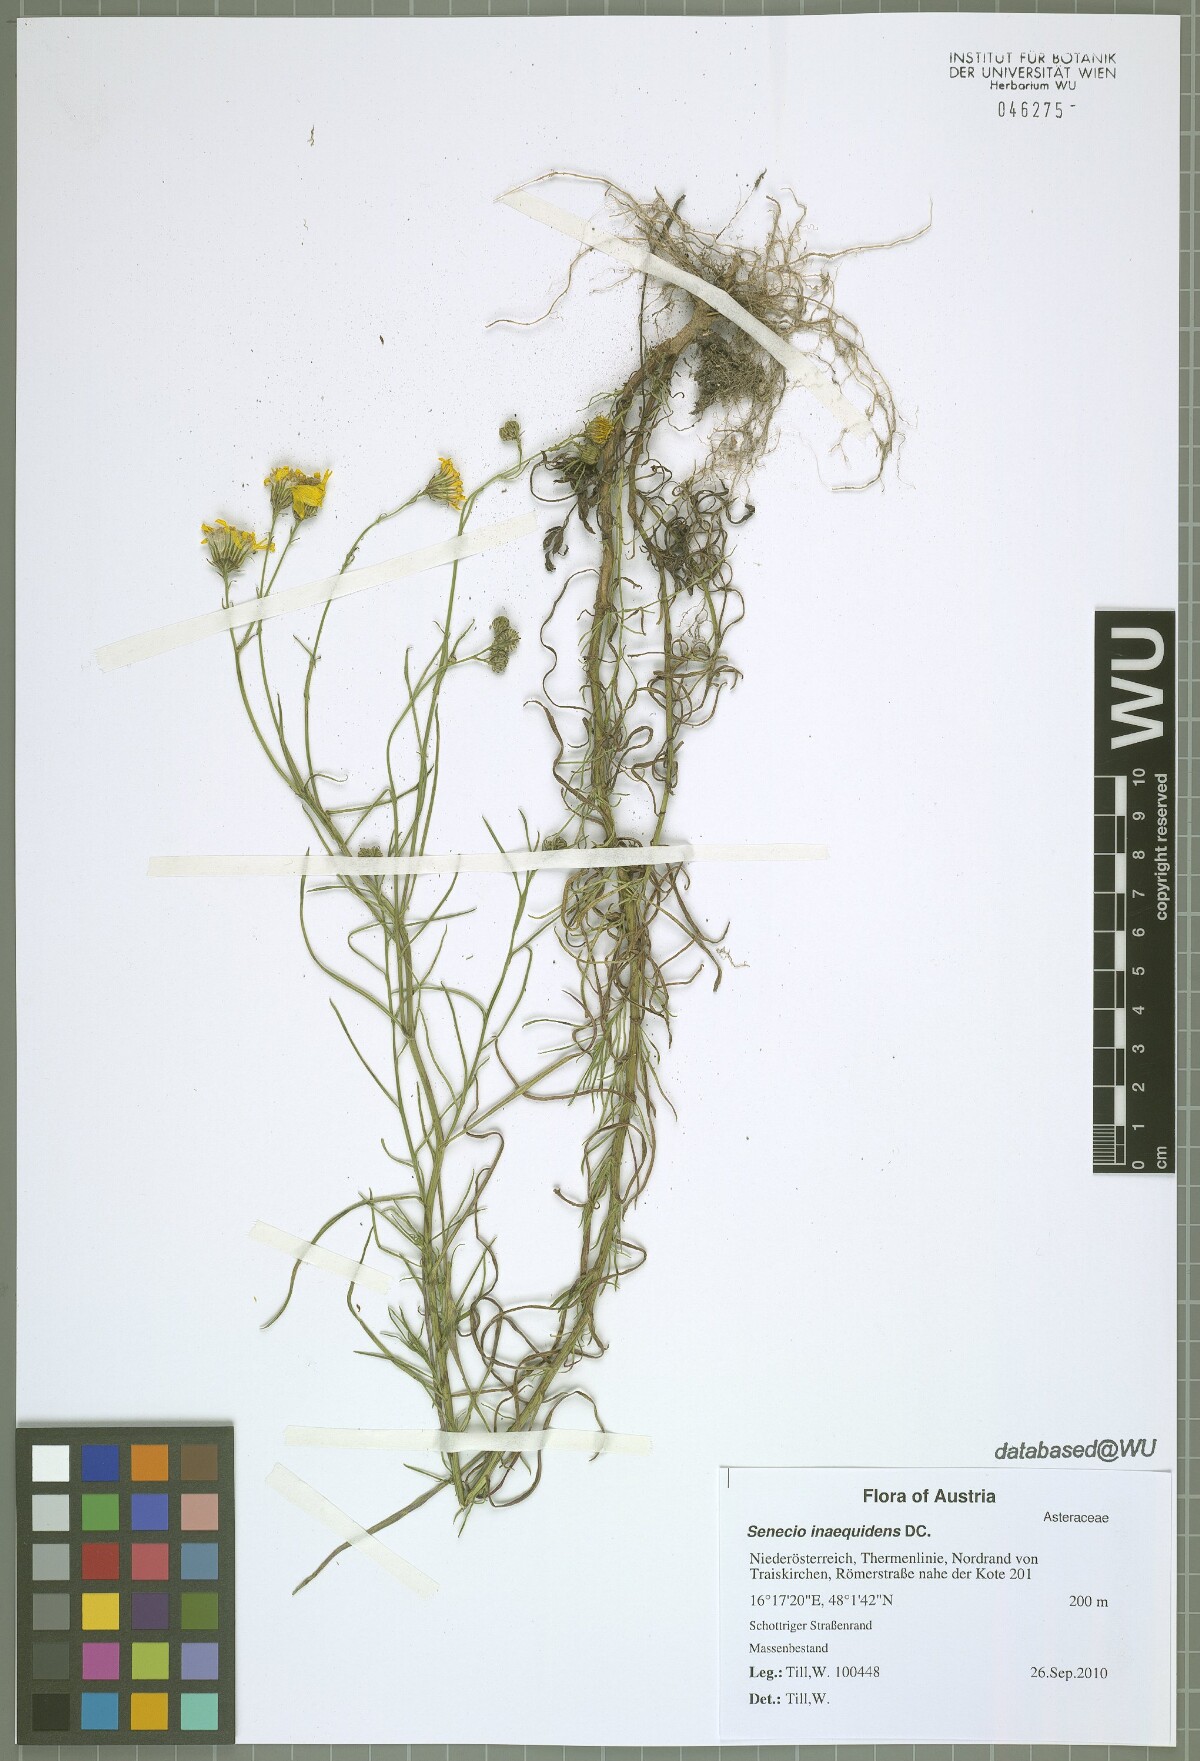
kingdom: Plantae
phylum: Tracheophyta
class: Magnoliopsida
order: Asterales
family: Asteraceae
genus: Senecio
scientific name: Senecio inaequidens
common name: Narrow-leaved ragwort
